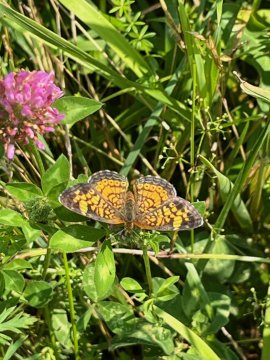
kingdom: Animalia
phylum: Arthropoda
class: Insecta
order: Lepidoptera
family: Nymphalidae
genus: Phyciodes
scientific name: Phyciodes
